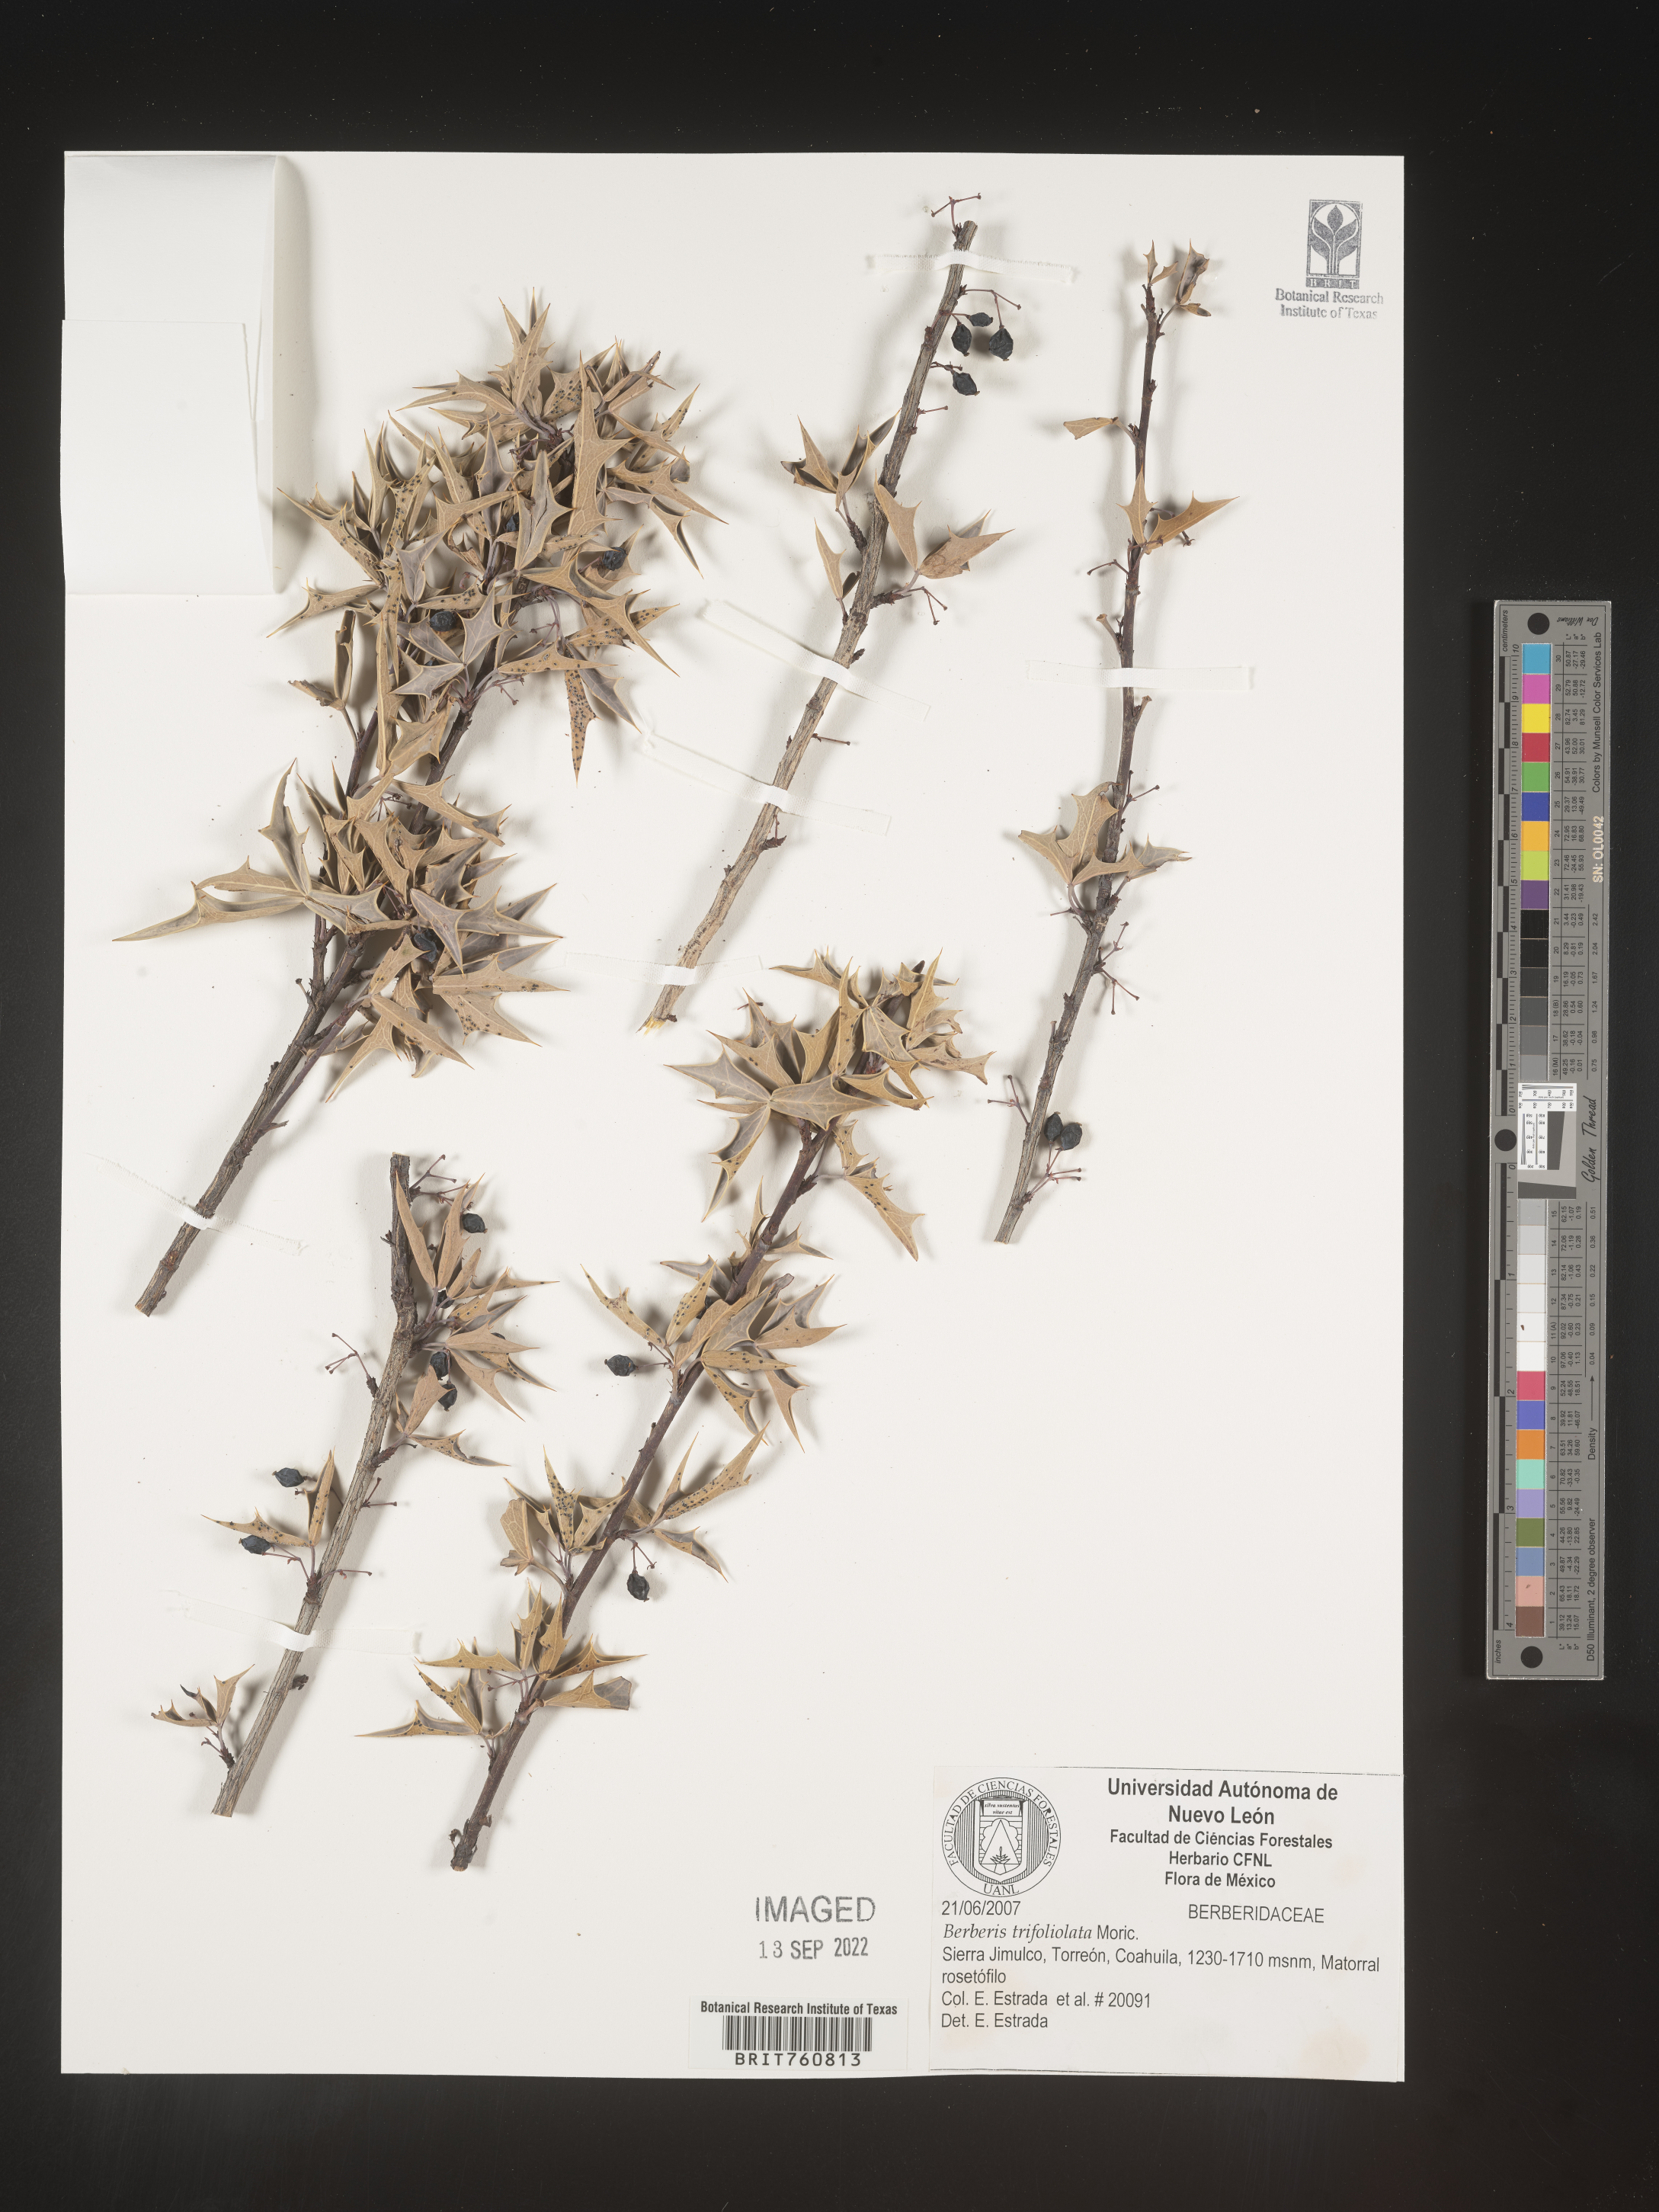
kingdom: Plantae
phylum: Tracheophyta
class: Magnoliopsida
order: Ranunculales
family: Berberidaceae
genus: Berberis
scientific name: Berberis
